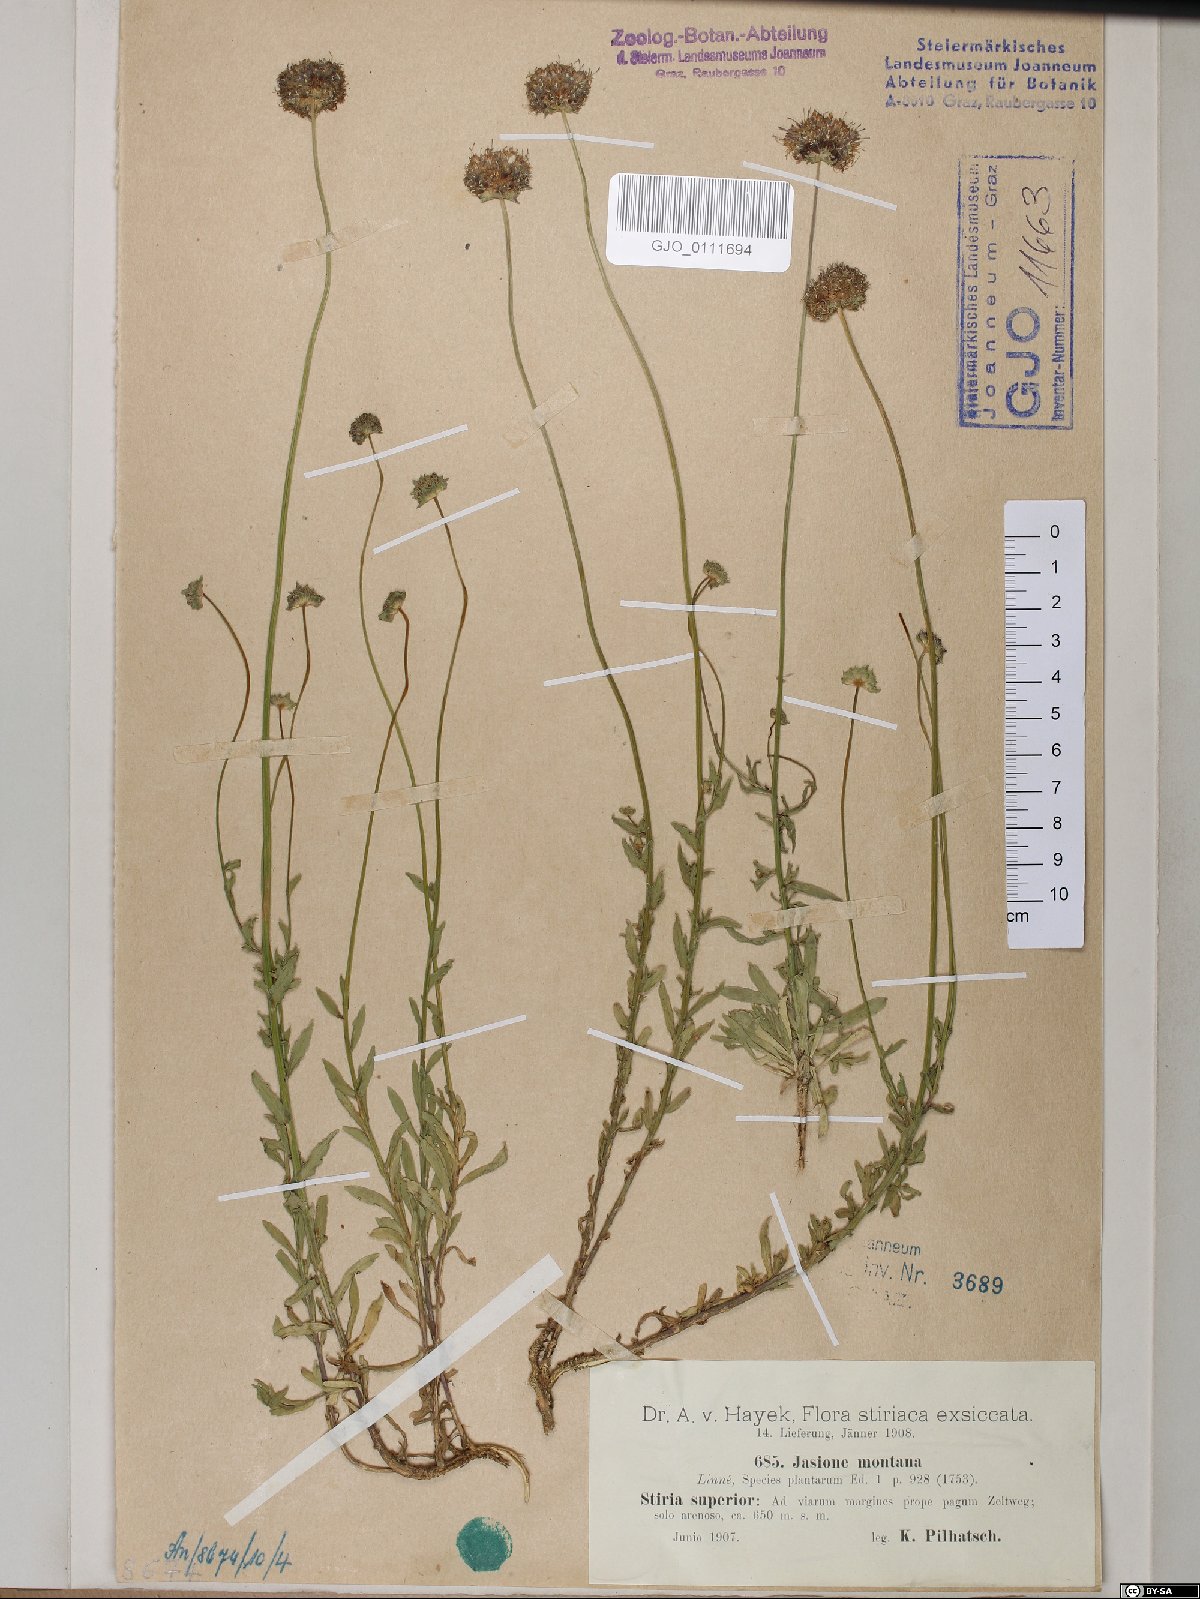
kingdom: Plantae
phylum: Tracheophyta
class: Magnoliopsida
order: Asterales
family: Campanulaceae
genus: Jasione
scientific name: Jasione montana
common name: Sheep's-bit
